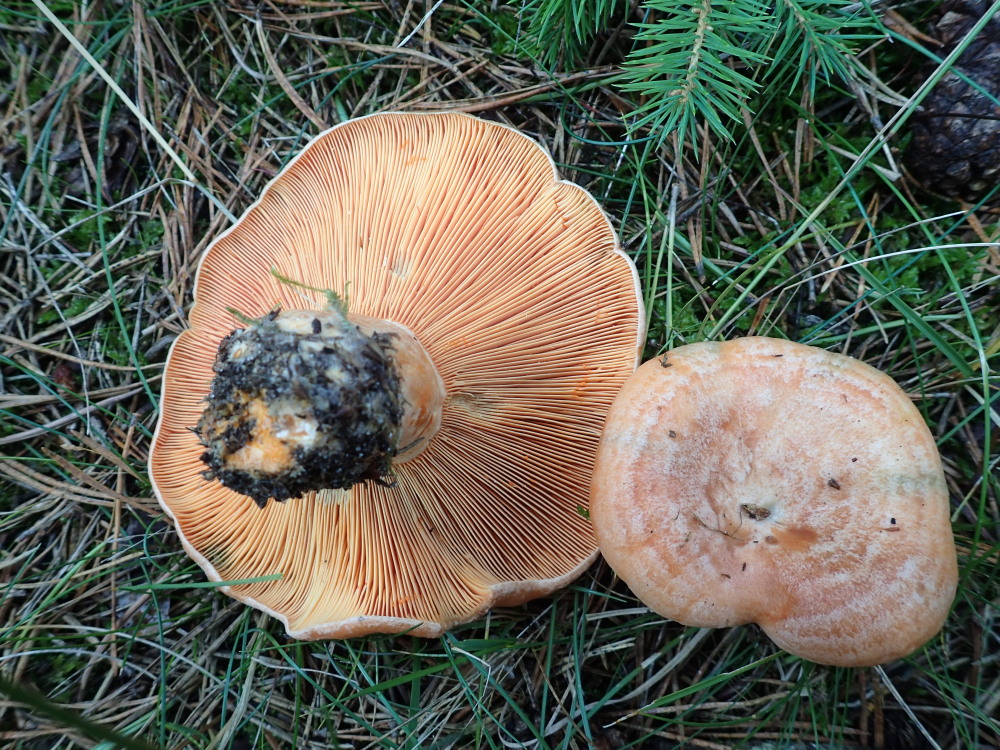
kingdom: Fungi
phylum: Basidiomycota
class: Agaricomycetes
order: Russulales
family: Russulaceae
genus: Lactarius
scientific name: Lactarius deliciosus
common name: velsmagende mælkehat
